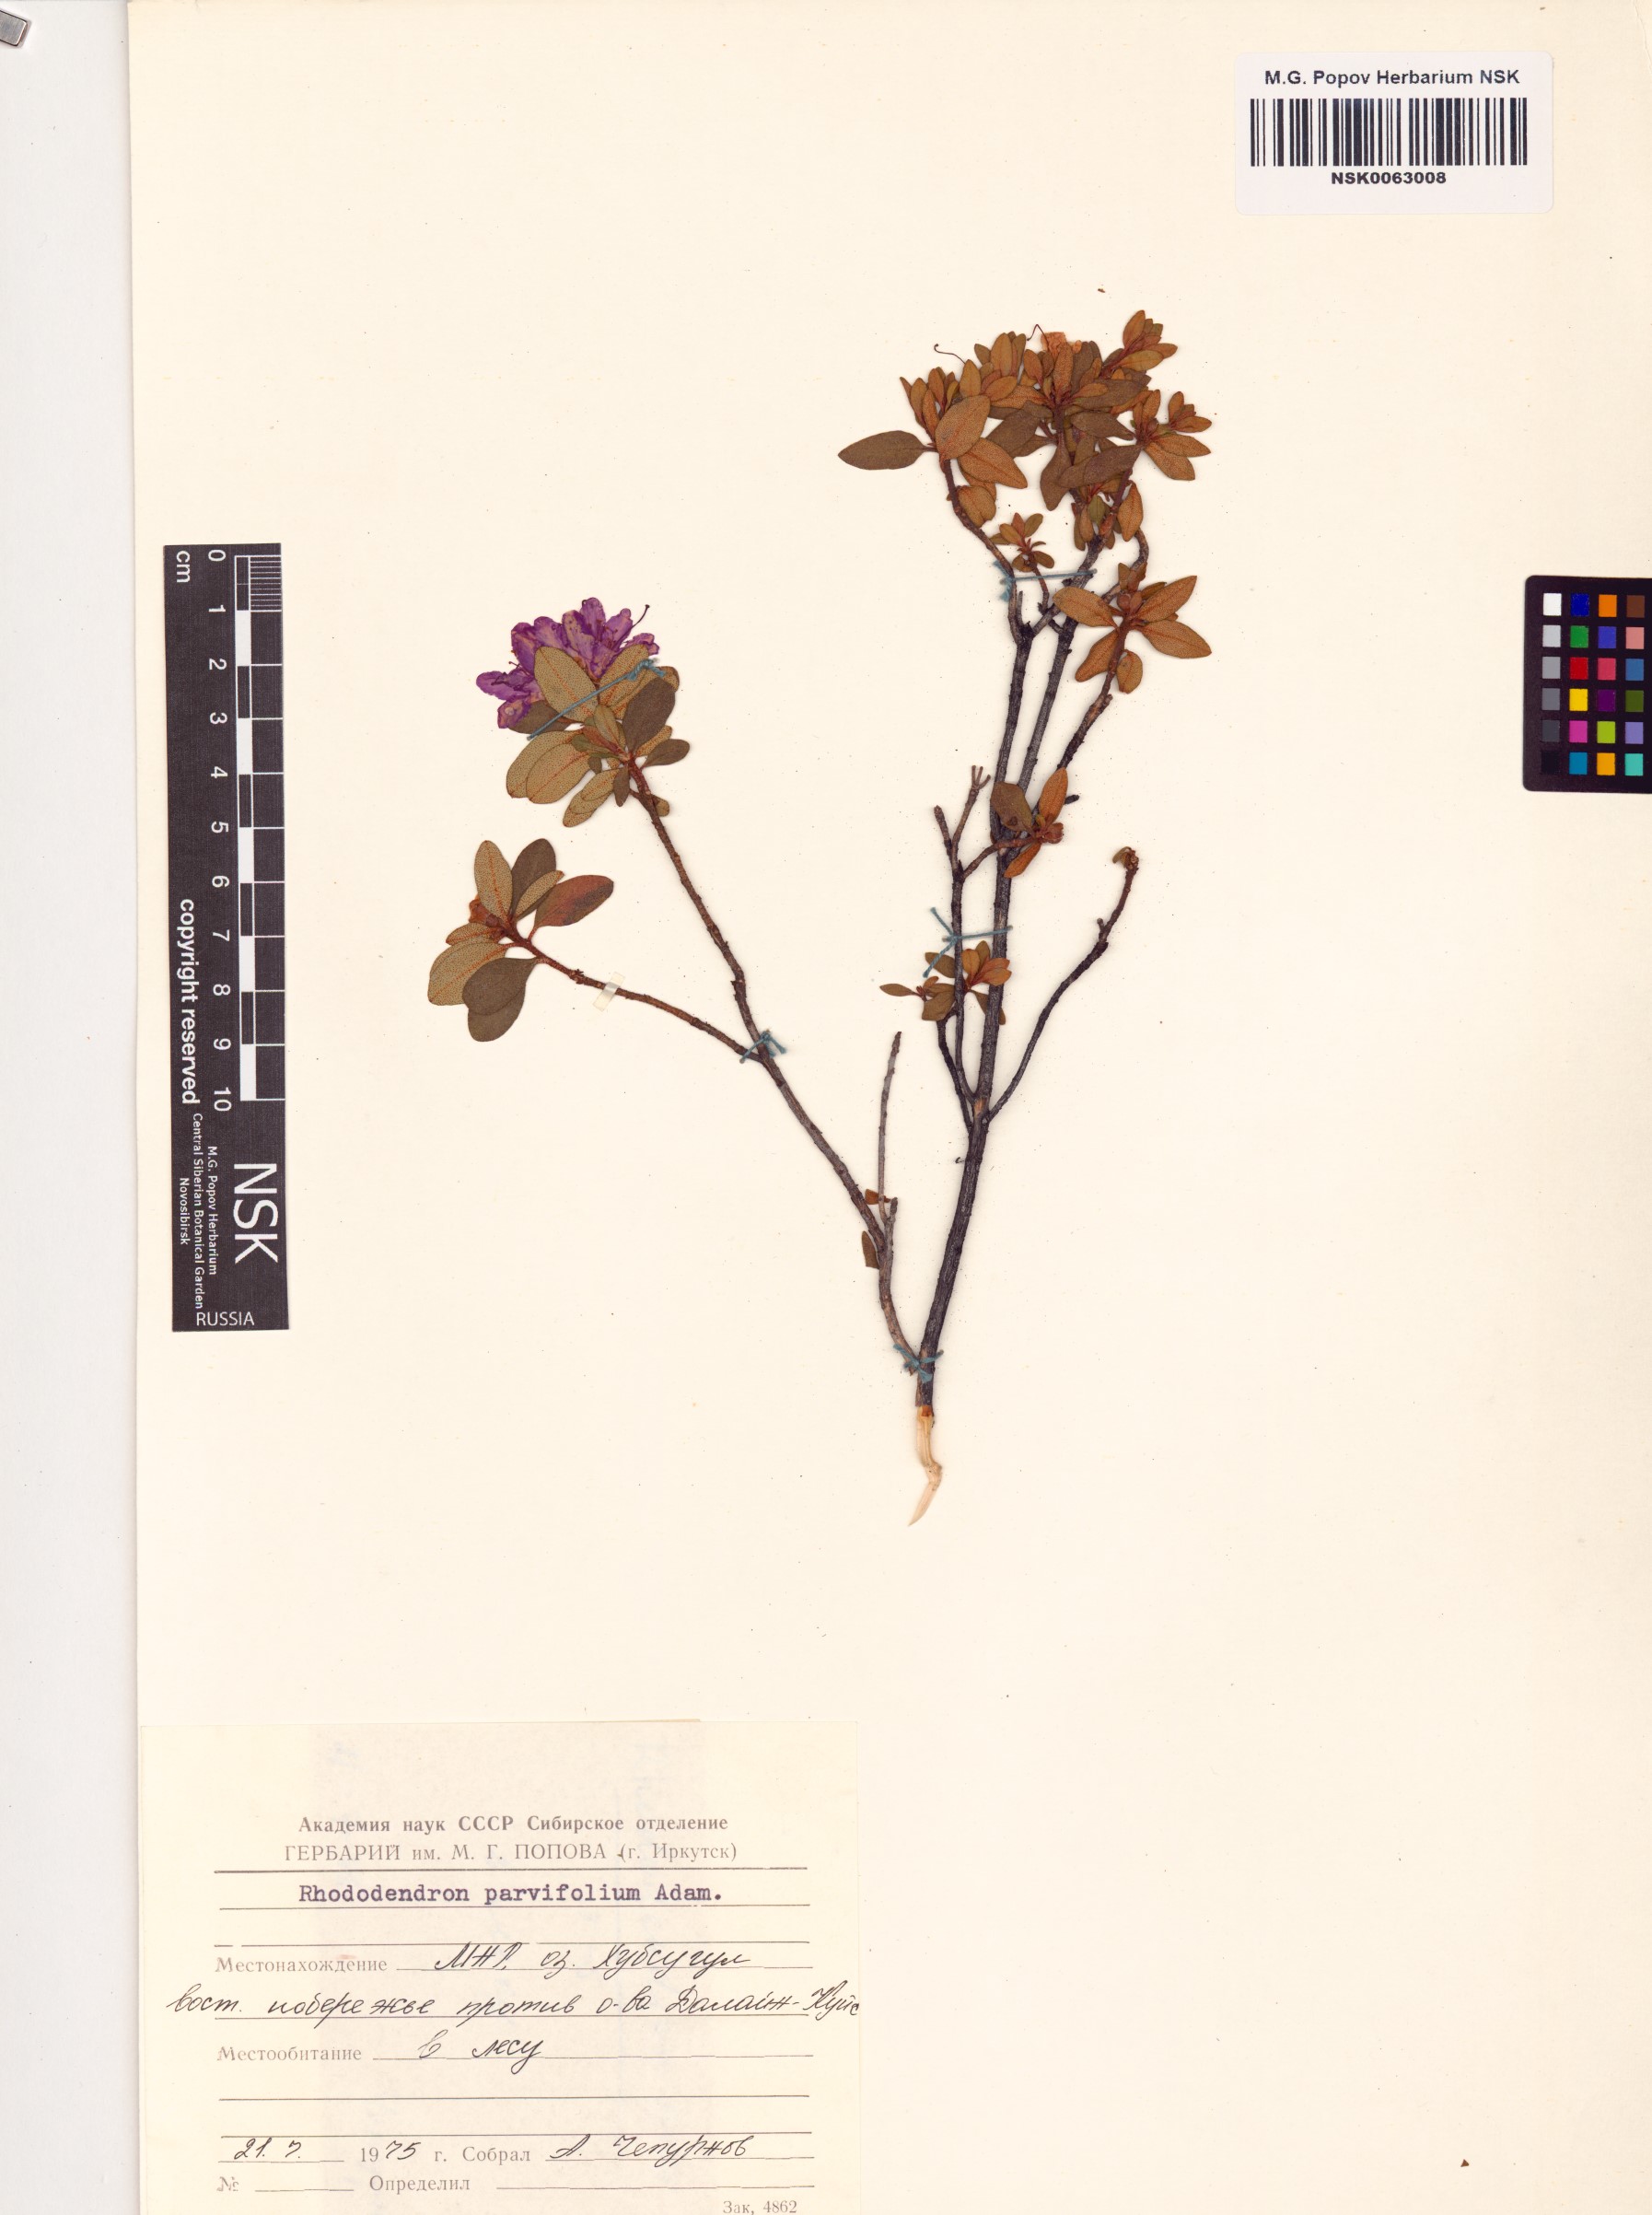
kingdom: Plantae
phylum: Tracheophyta
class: Magnoliopsida
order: Ericales
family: Ericaceae
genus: Rhododendron
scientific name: Rhododendron parvifolium
